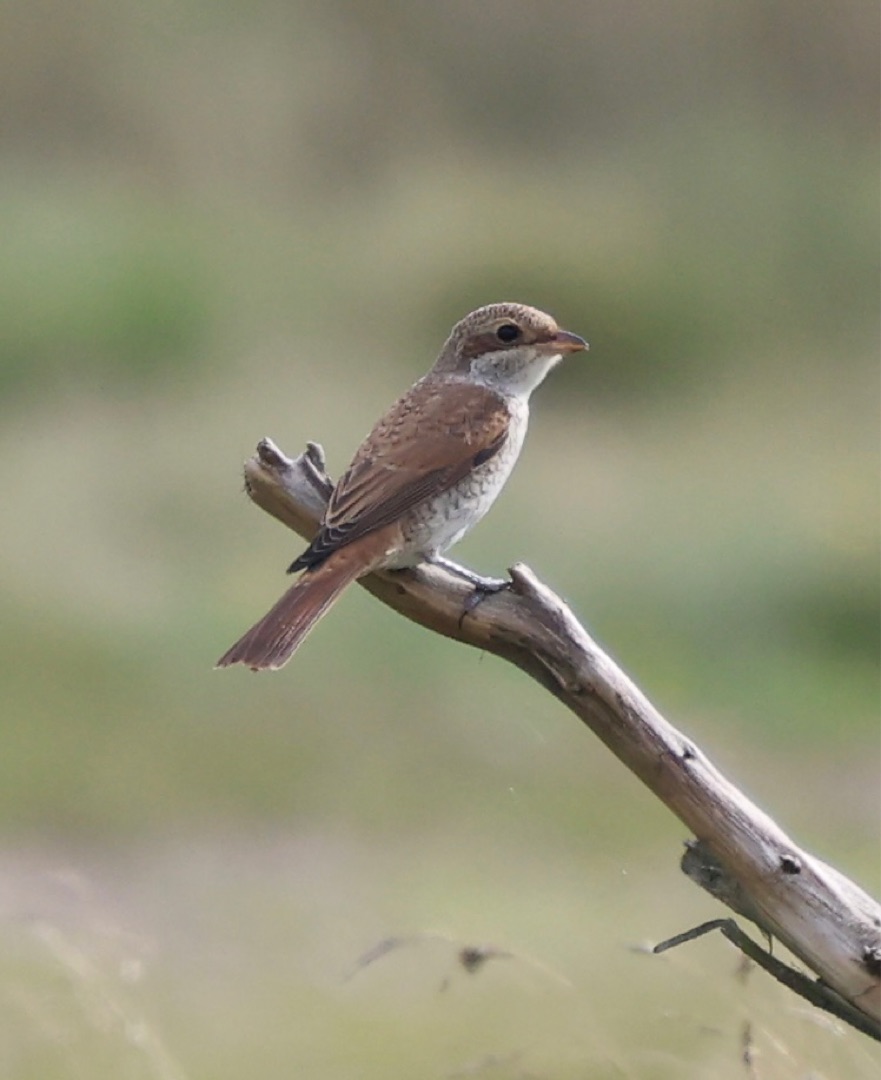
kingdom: Animalia
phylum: Chordata
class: Aves
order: Passeriformes
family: Laniidae
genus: Lanius
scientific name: Lanius collurio
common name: Rødrygget tornskade
